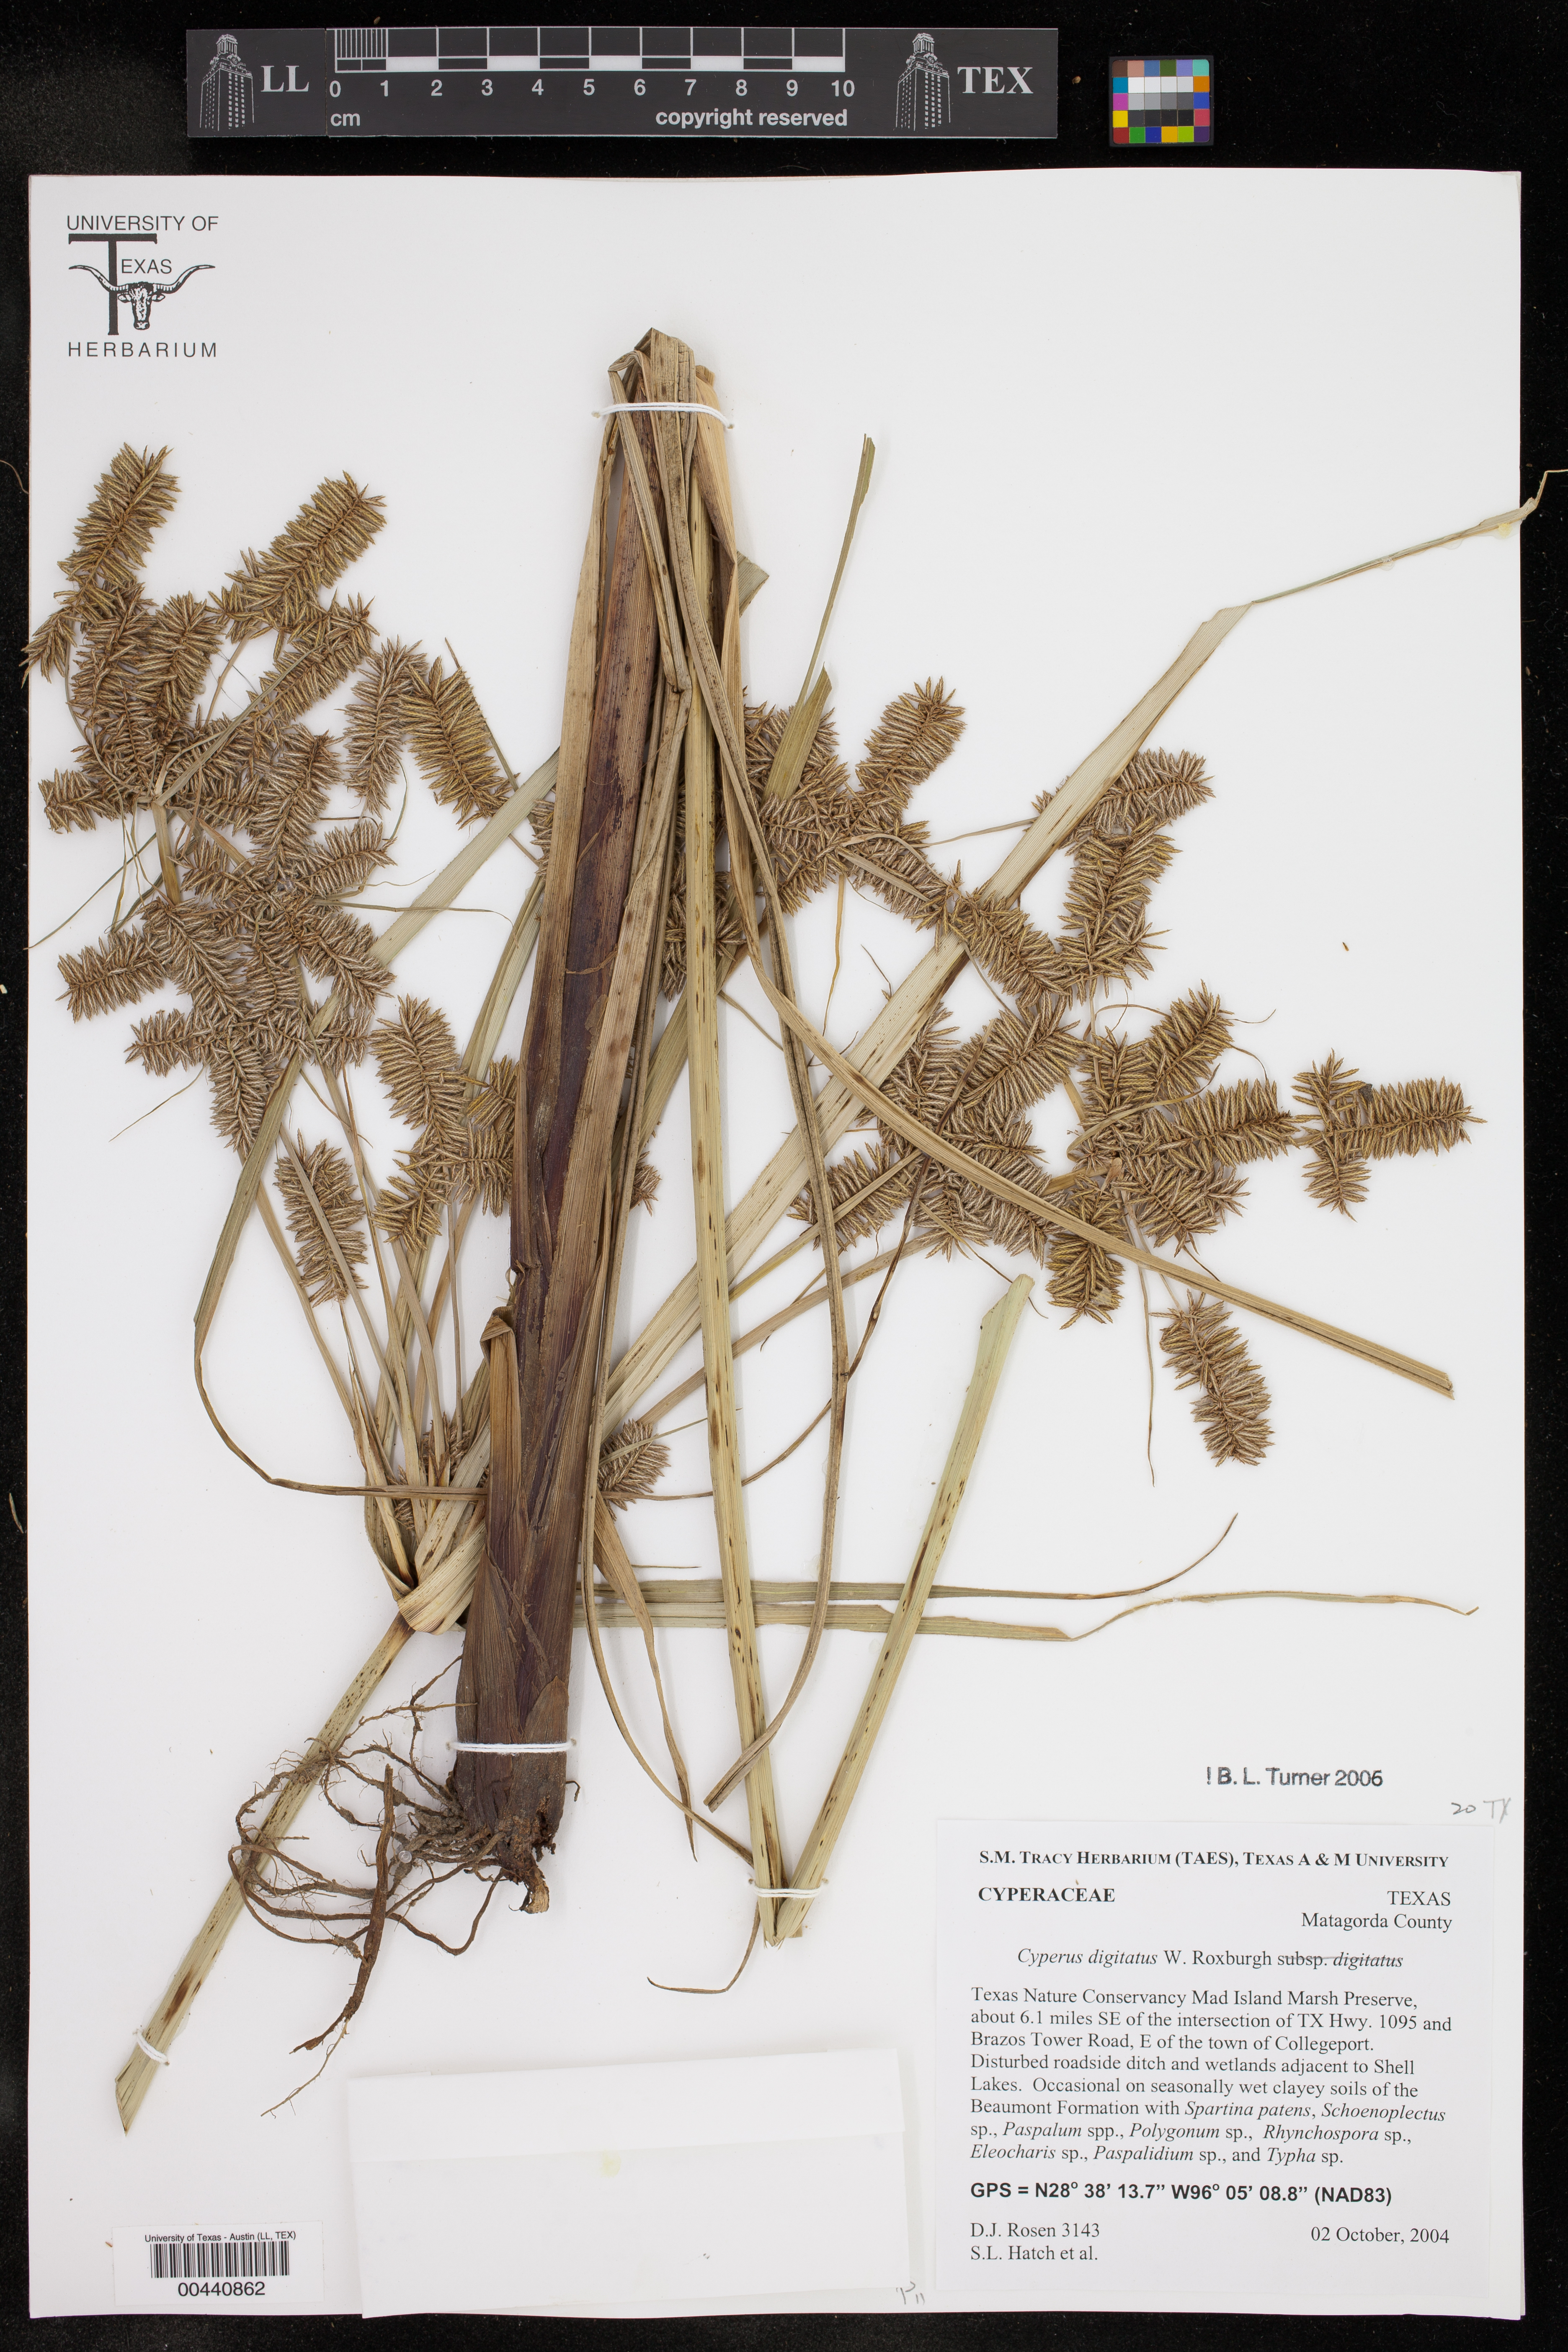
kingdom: Plantae
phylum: Tracheophyta
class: Liliopsida
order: Poales
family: Cyperaceae
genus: Cyperus
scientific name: Cyperus digitatus
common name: Finger flatsedge
